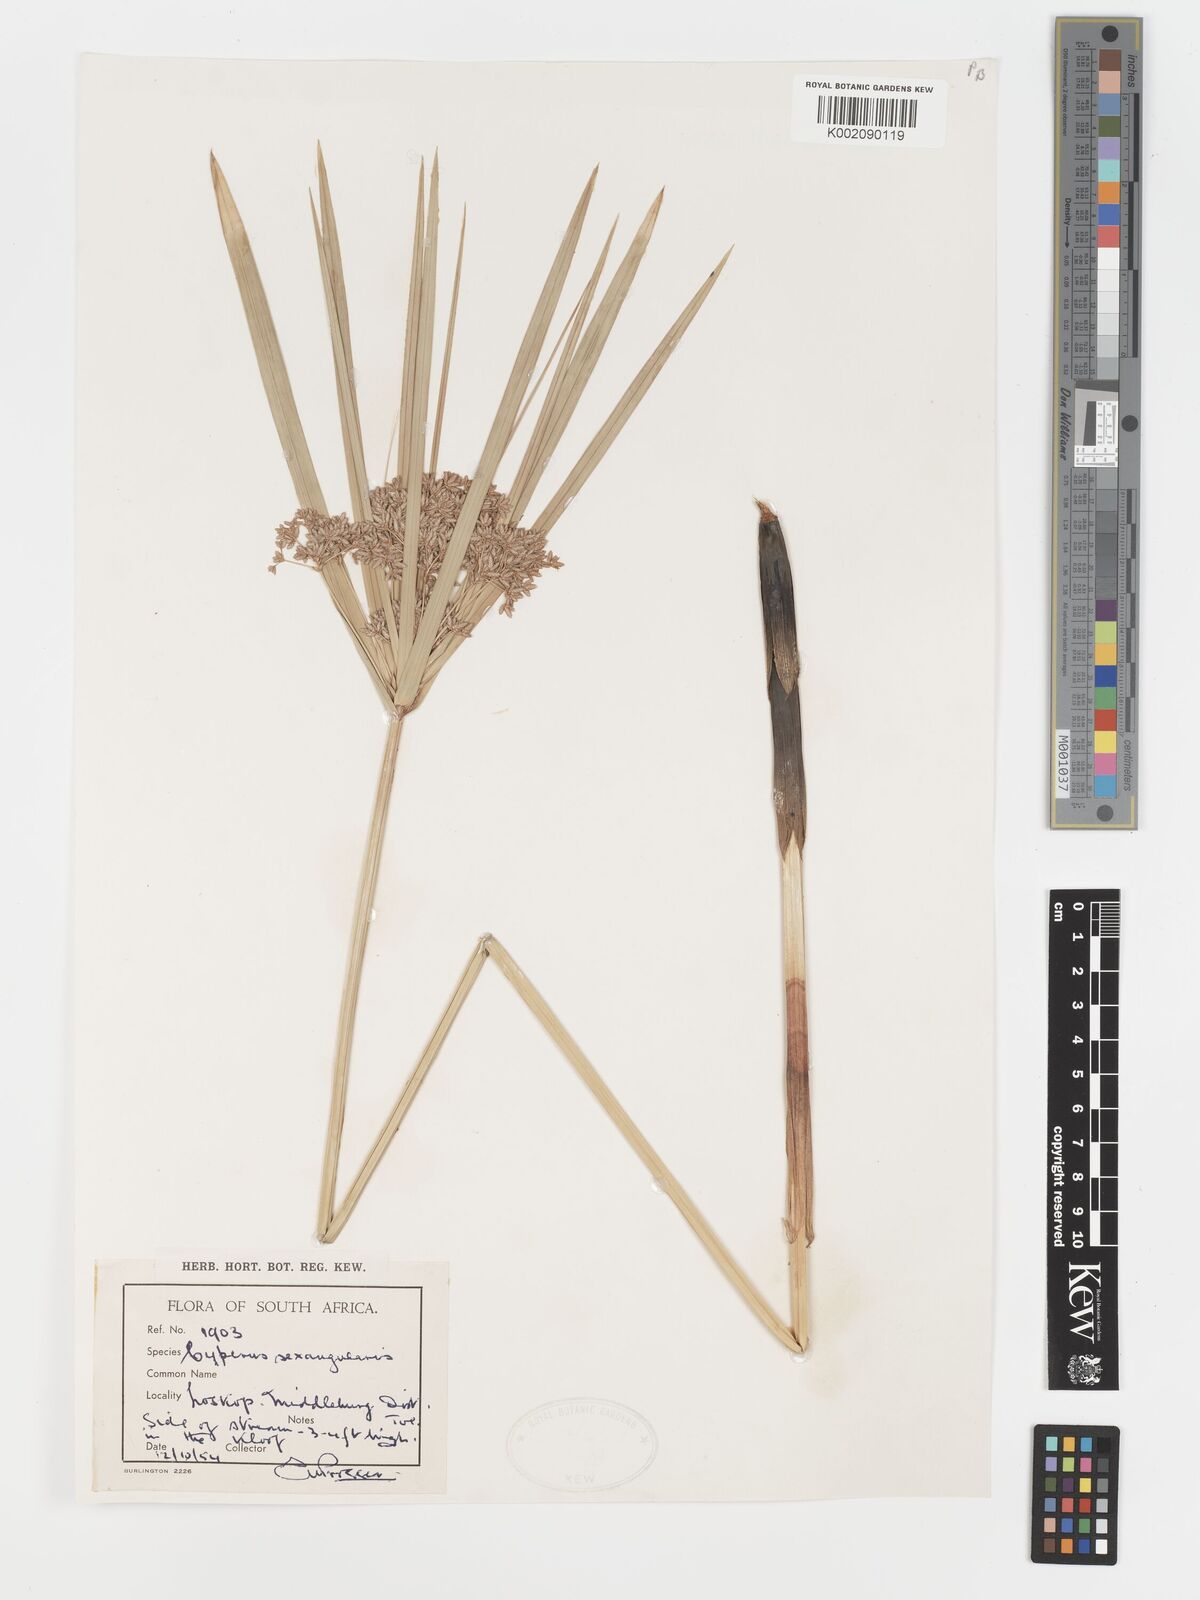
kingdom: Plantae
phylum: Tracheophyta
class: Liliopsida
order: Poales
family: Cyperaceae
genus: Cyperus
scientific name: Cyperus sexangularis
